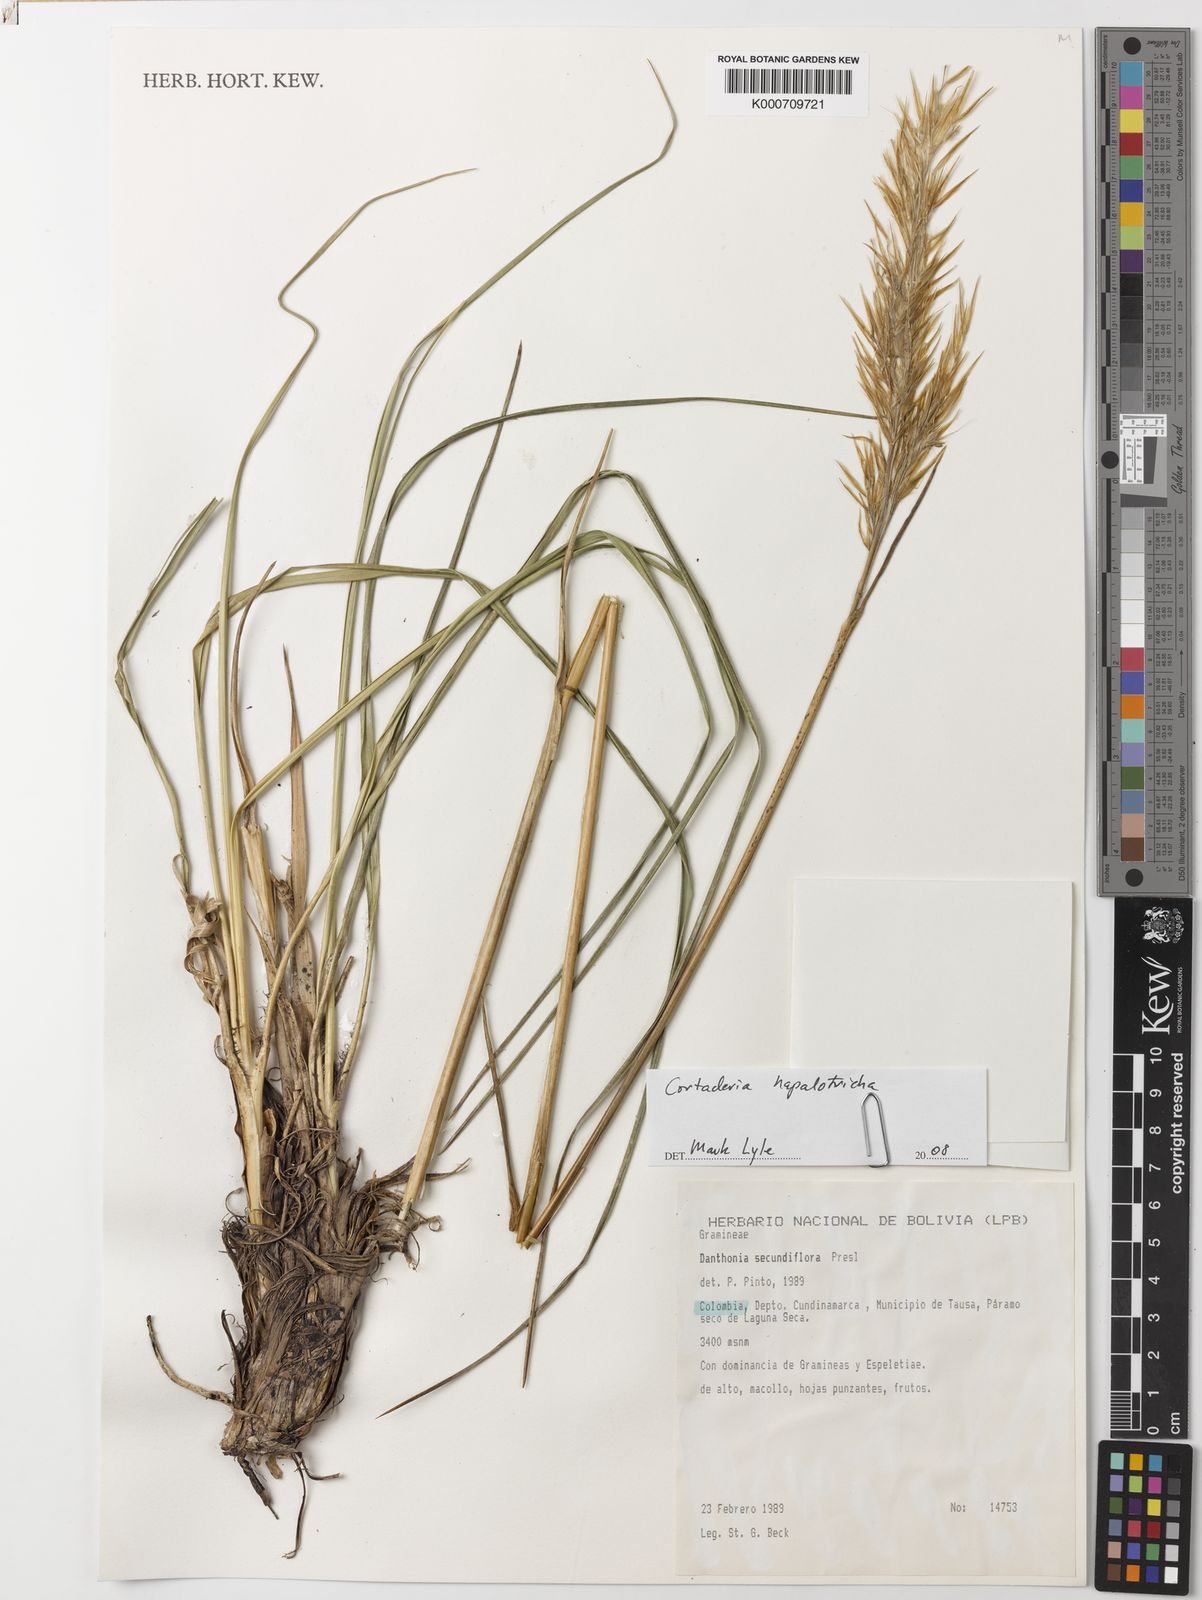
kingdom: Plantae
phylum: Tracheophyta
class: Liliopsida
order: Poales
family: Poaceae
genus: Cortaderia
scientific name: Cortaderia hapalotricha
